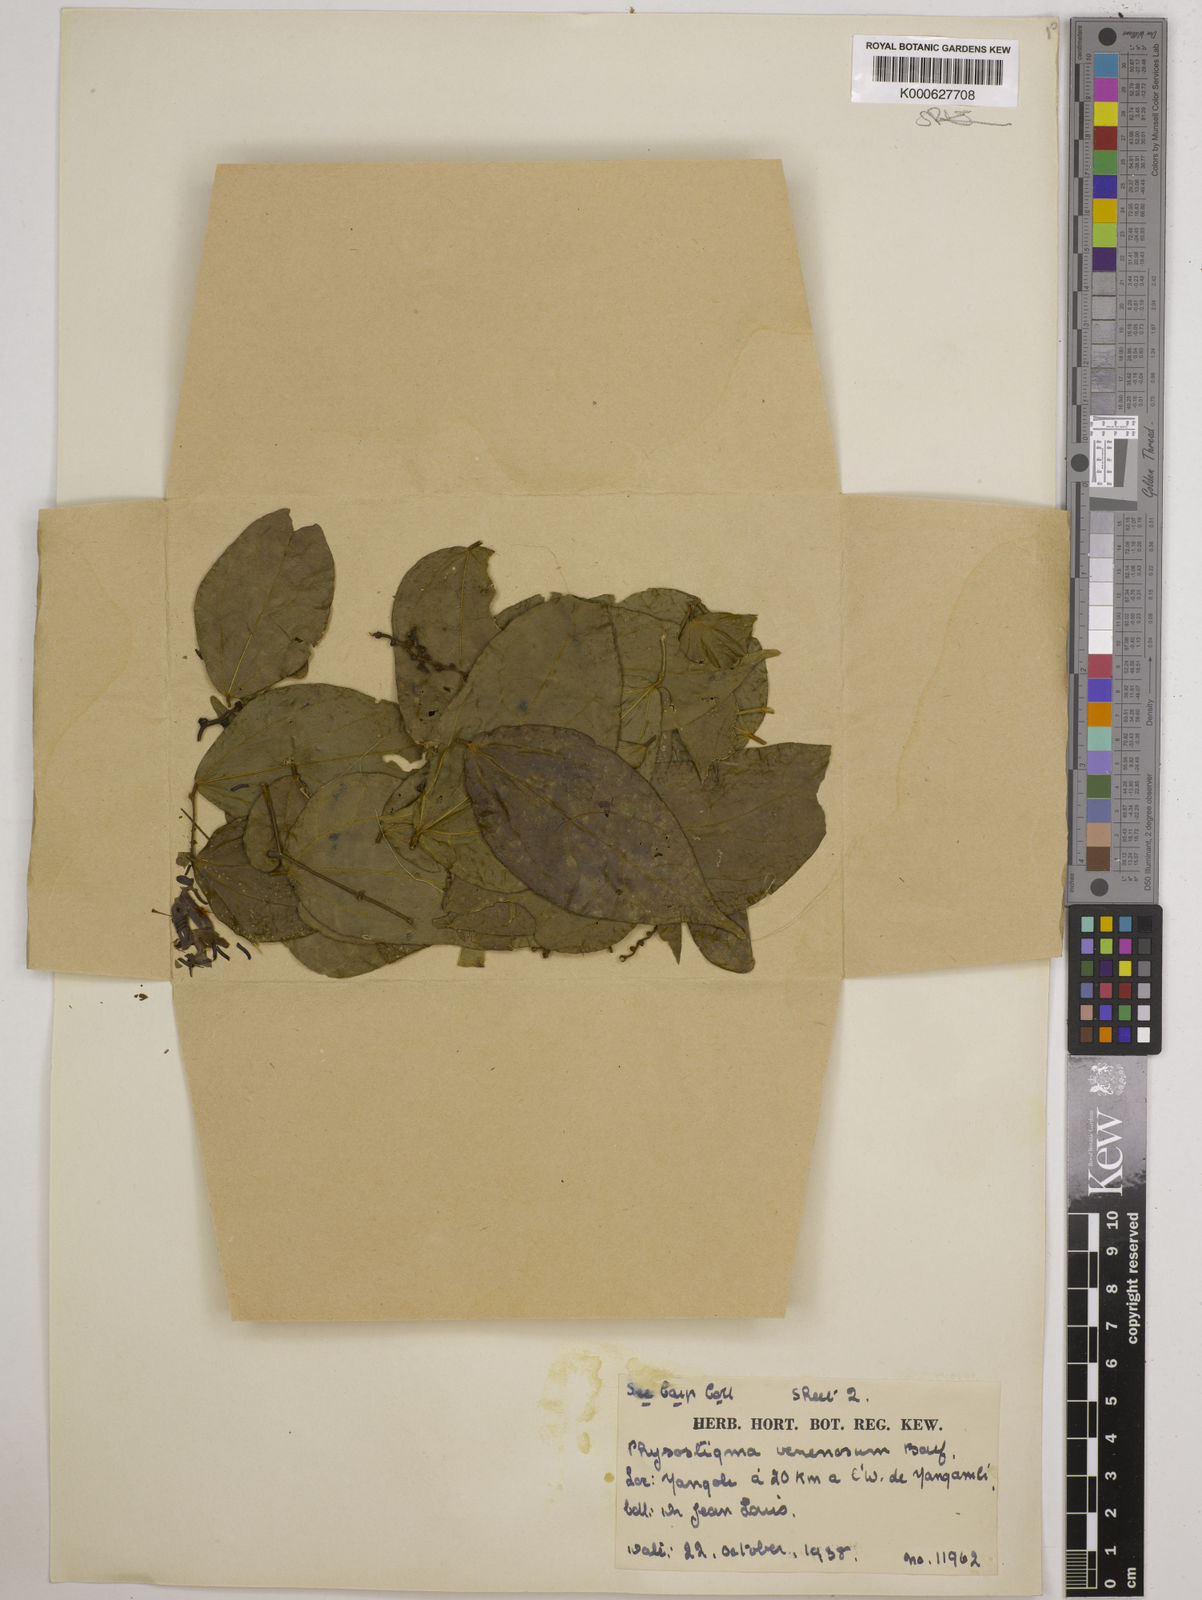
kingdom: Plantae
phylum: Tracheophyta
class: Magnoliopsida
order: Fabales
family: Fabaceae
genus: Physostigma
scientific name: Physostigma cylindrospermum
